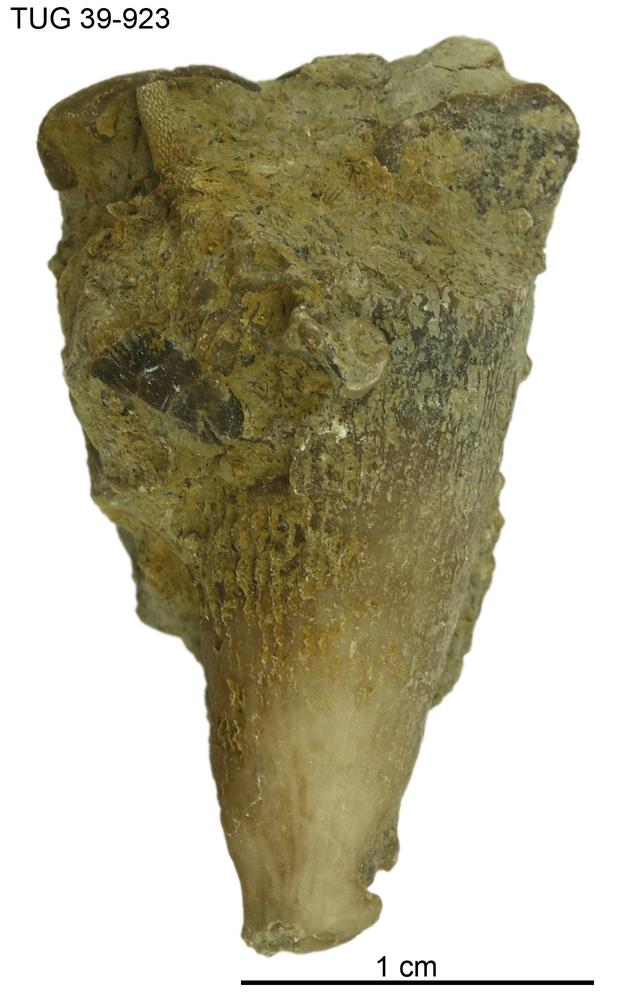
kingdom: Animalia
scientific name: Animalia
